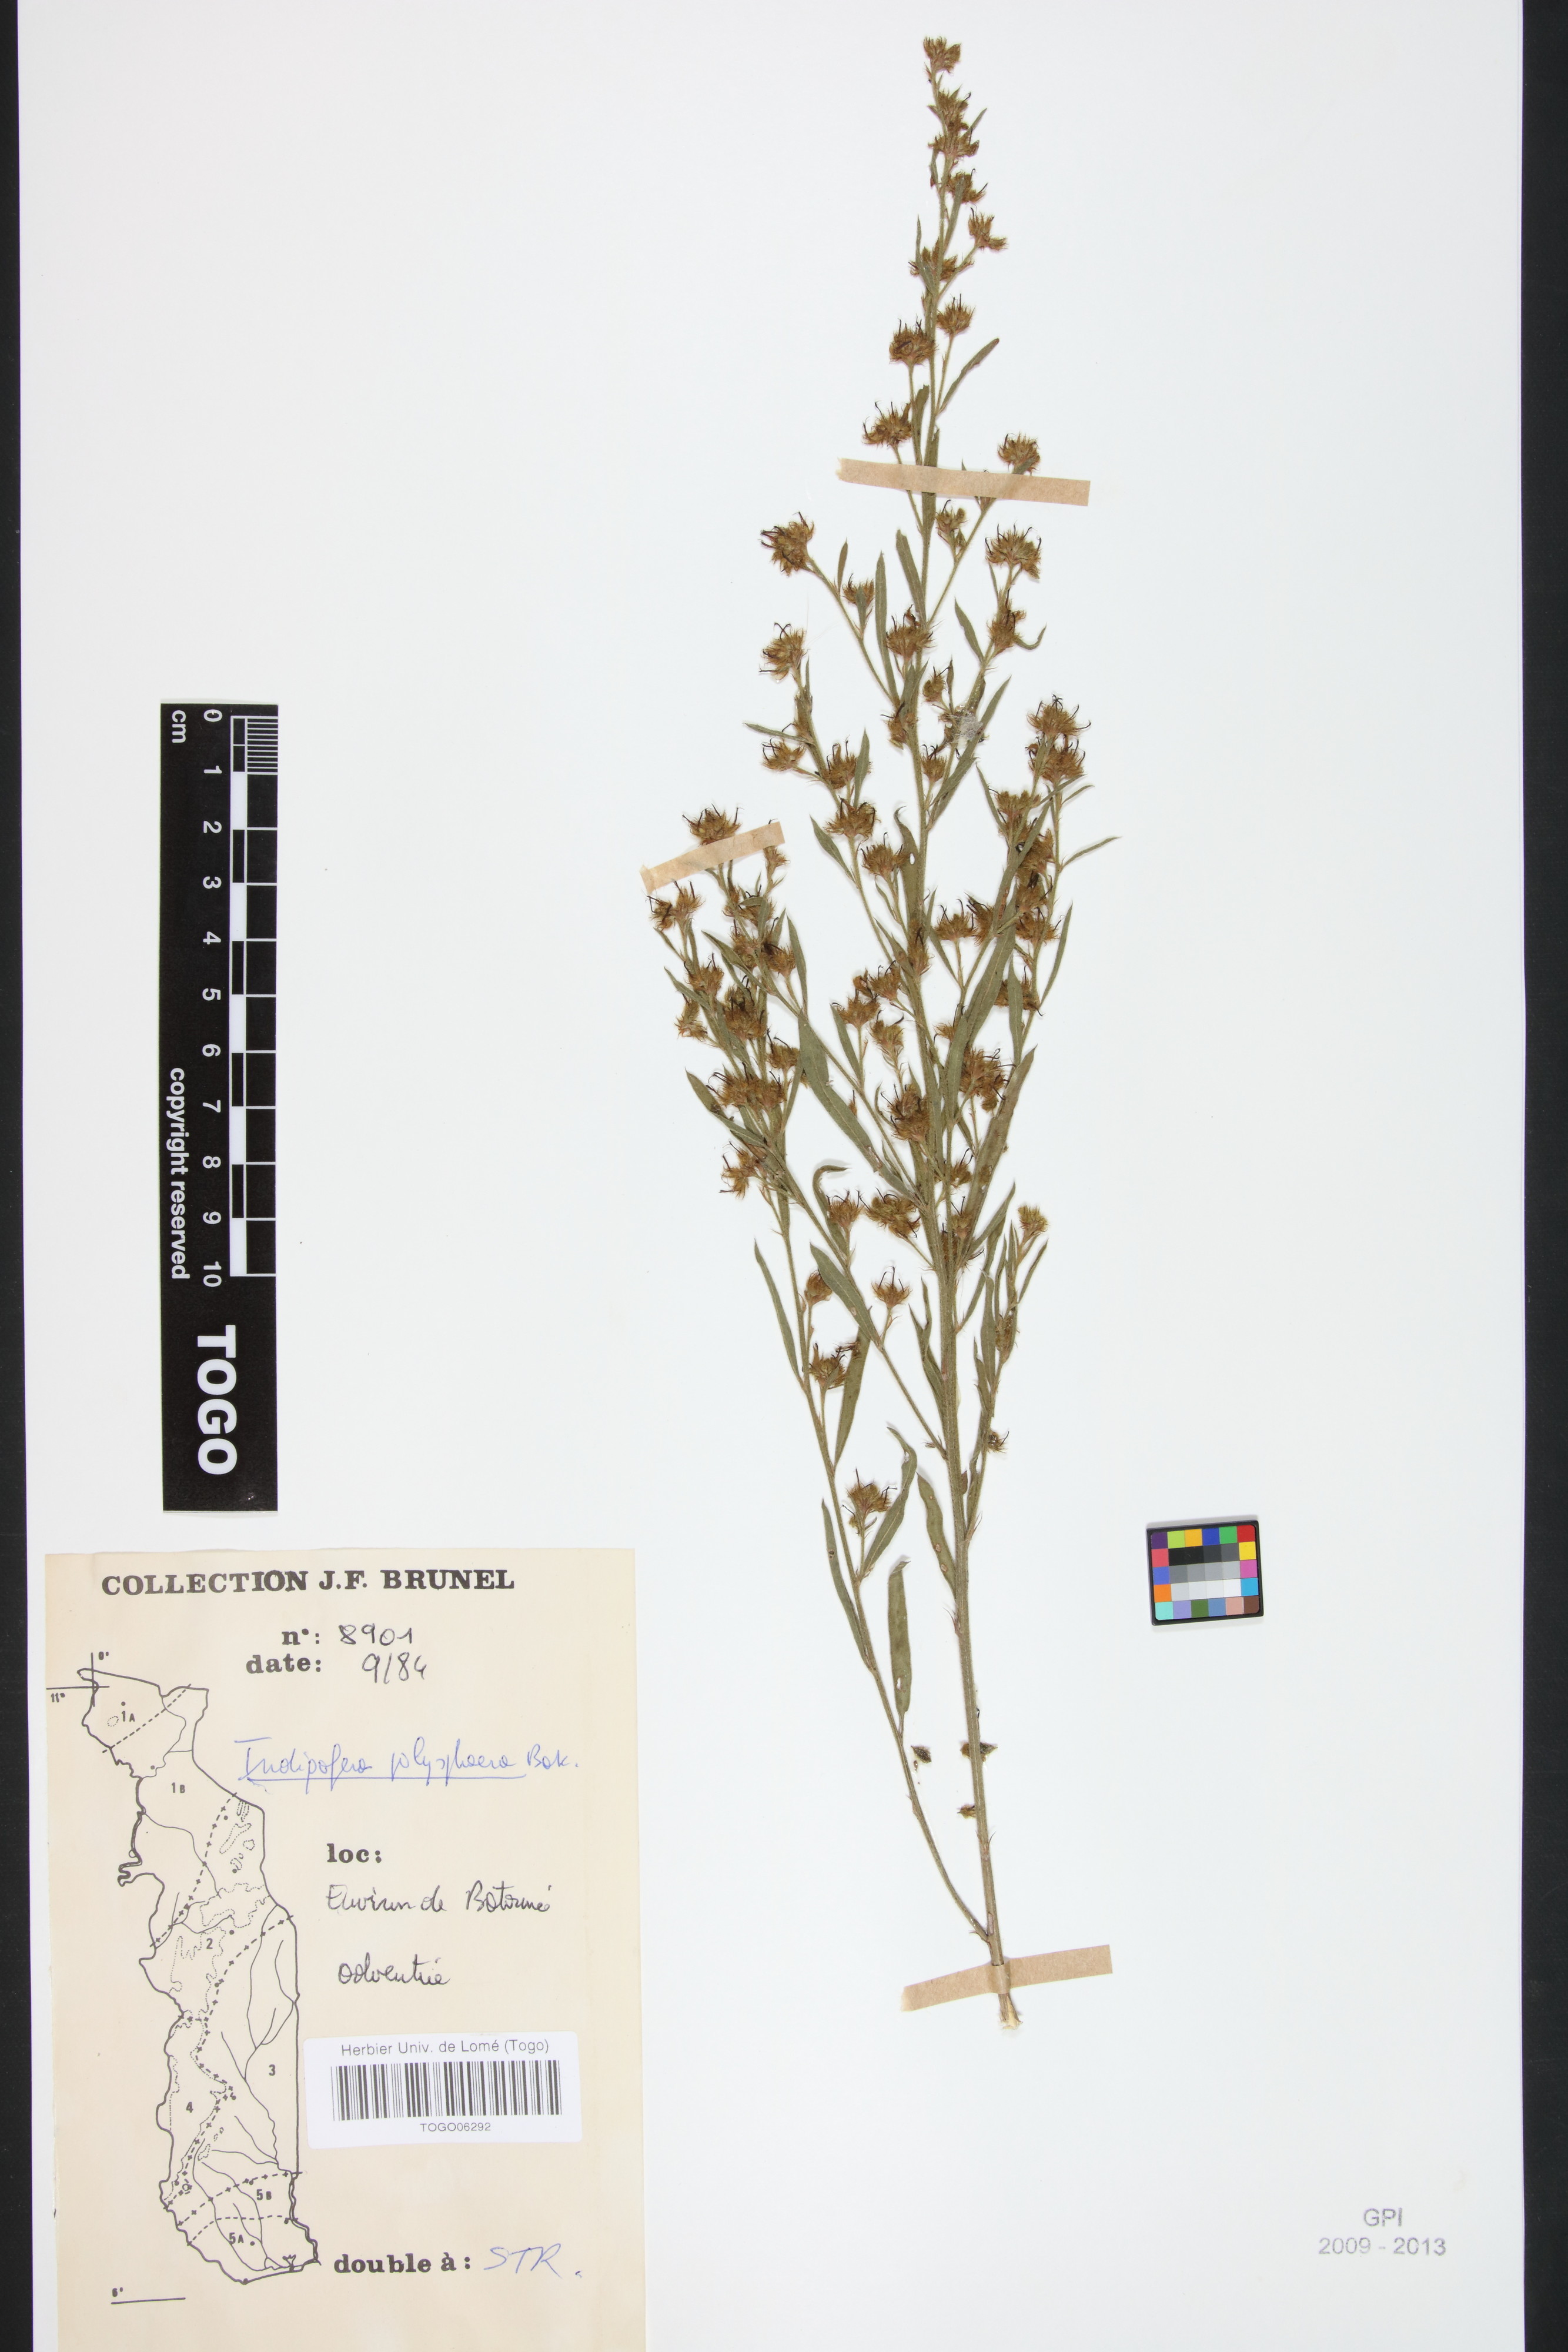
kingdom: Plantae
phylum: Tracheophyta
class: Magnoliopsida
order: Fabales
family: Fabaceae
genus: Indigofera
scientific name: Indigofera polysphaera
